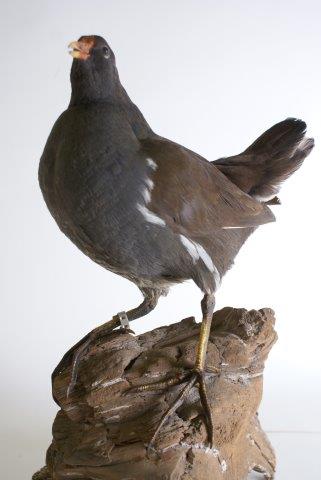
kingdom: Animalia
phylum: Chordata
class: Aves
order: Gruiformes
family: Rallidae
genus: Gallinula
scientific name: Gallinula chloropus
